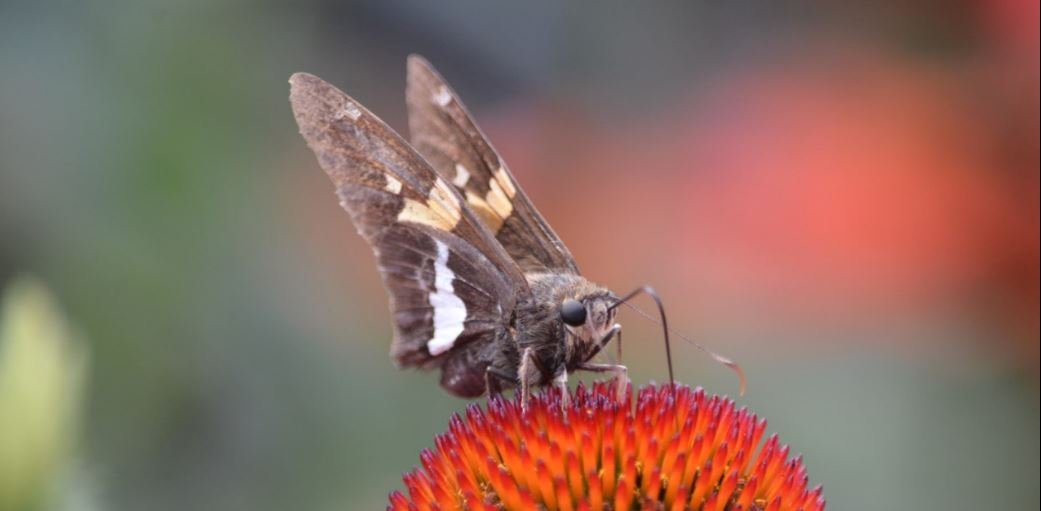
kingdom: Animalia
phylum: Arthropoda
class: Insecta
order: Lepidoptera
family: Hesperiidae
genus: Epargyreus
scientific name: Epargyreus clarus
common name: Silver-spotted Skipper
